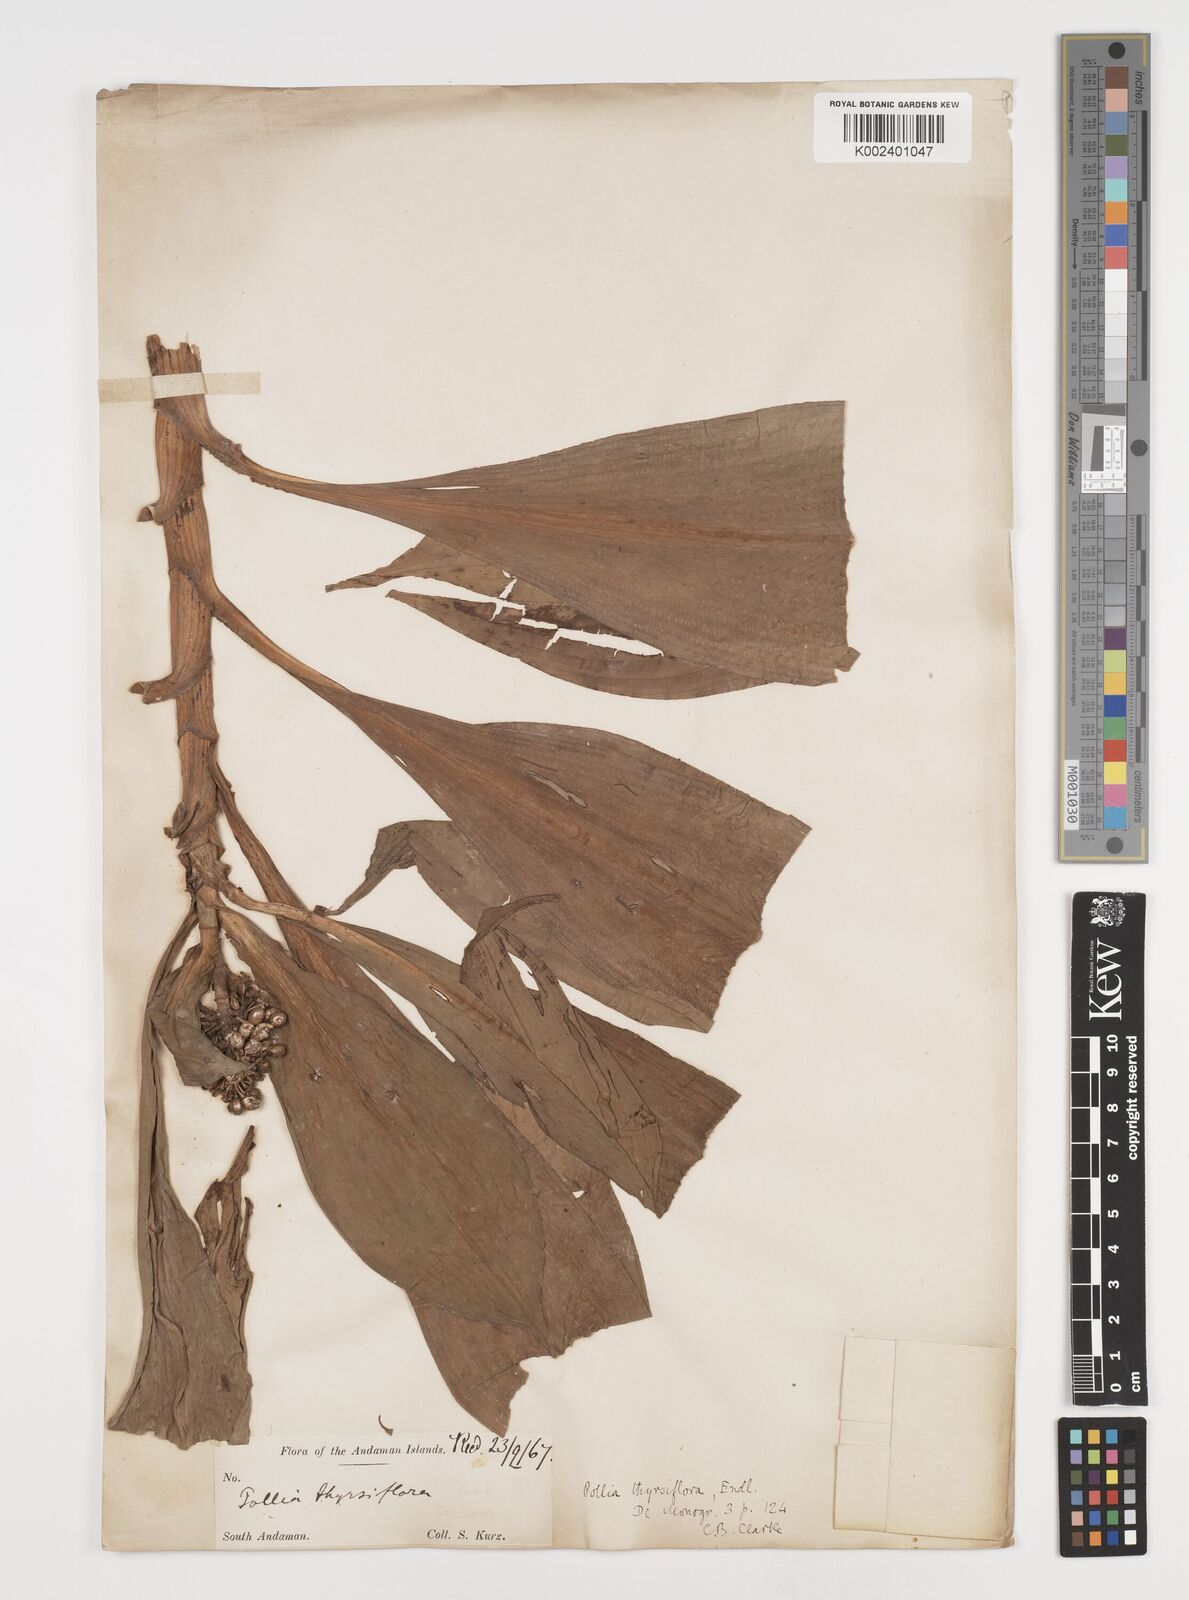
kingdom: Plantae
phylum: Tracheophyta
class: Liliopsida
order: Commelinales
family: Commelinaceae
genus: Pollia
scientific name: Pollia thyrsiflora
